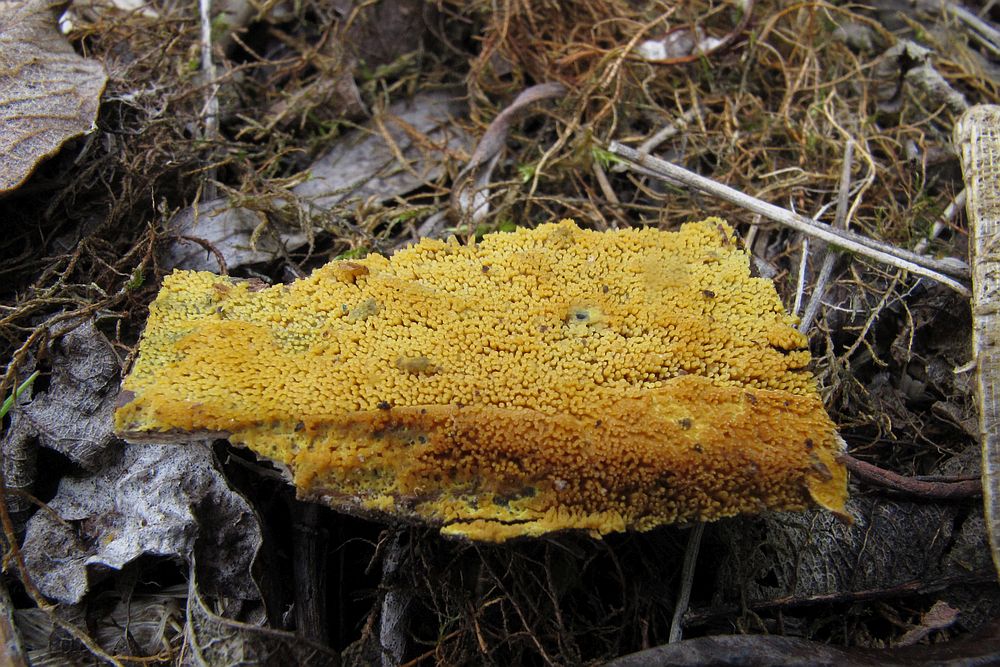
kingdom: Fungi
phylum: Basidiomycota
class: Agaricomycetes
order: Polyporales
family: Meruliaceae
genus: Mycoacia
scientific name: Mycoacia uda
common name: citrongul vokspig
